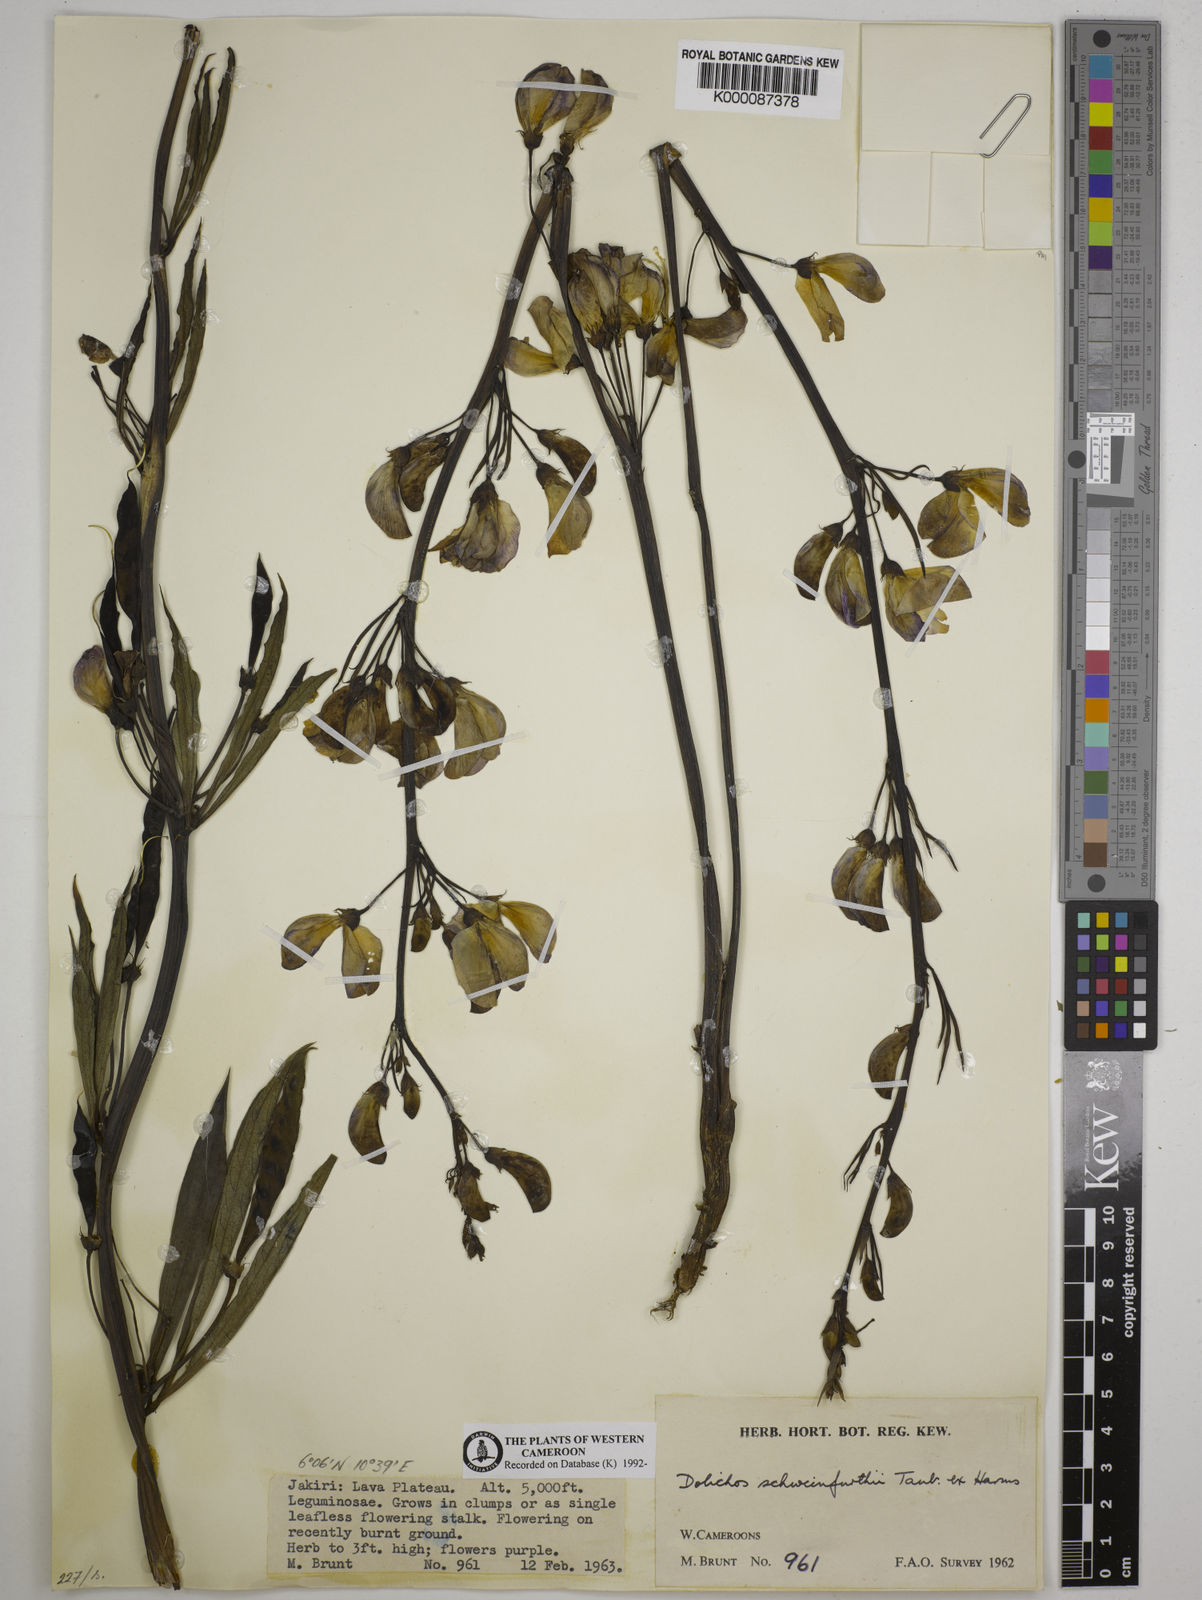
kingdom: Plantae
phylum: Tracheophyta
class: Magnoliopsida
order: Fabales
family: Fabaceae
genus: Dolichos
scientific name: Dolichos
